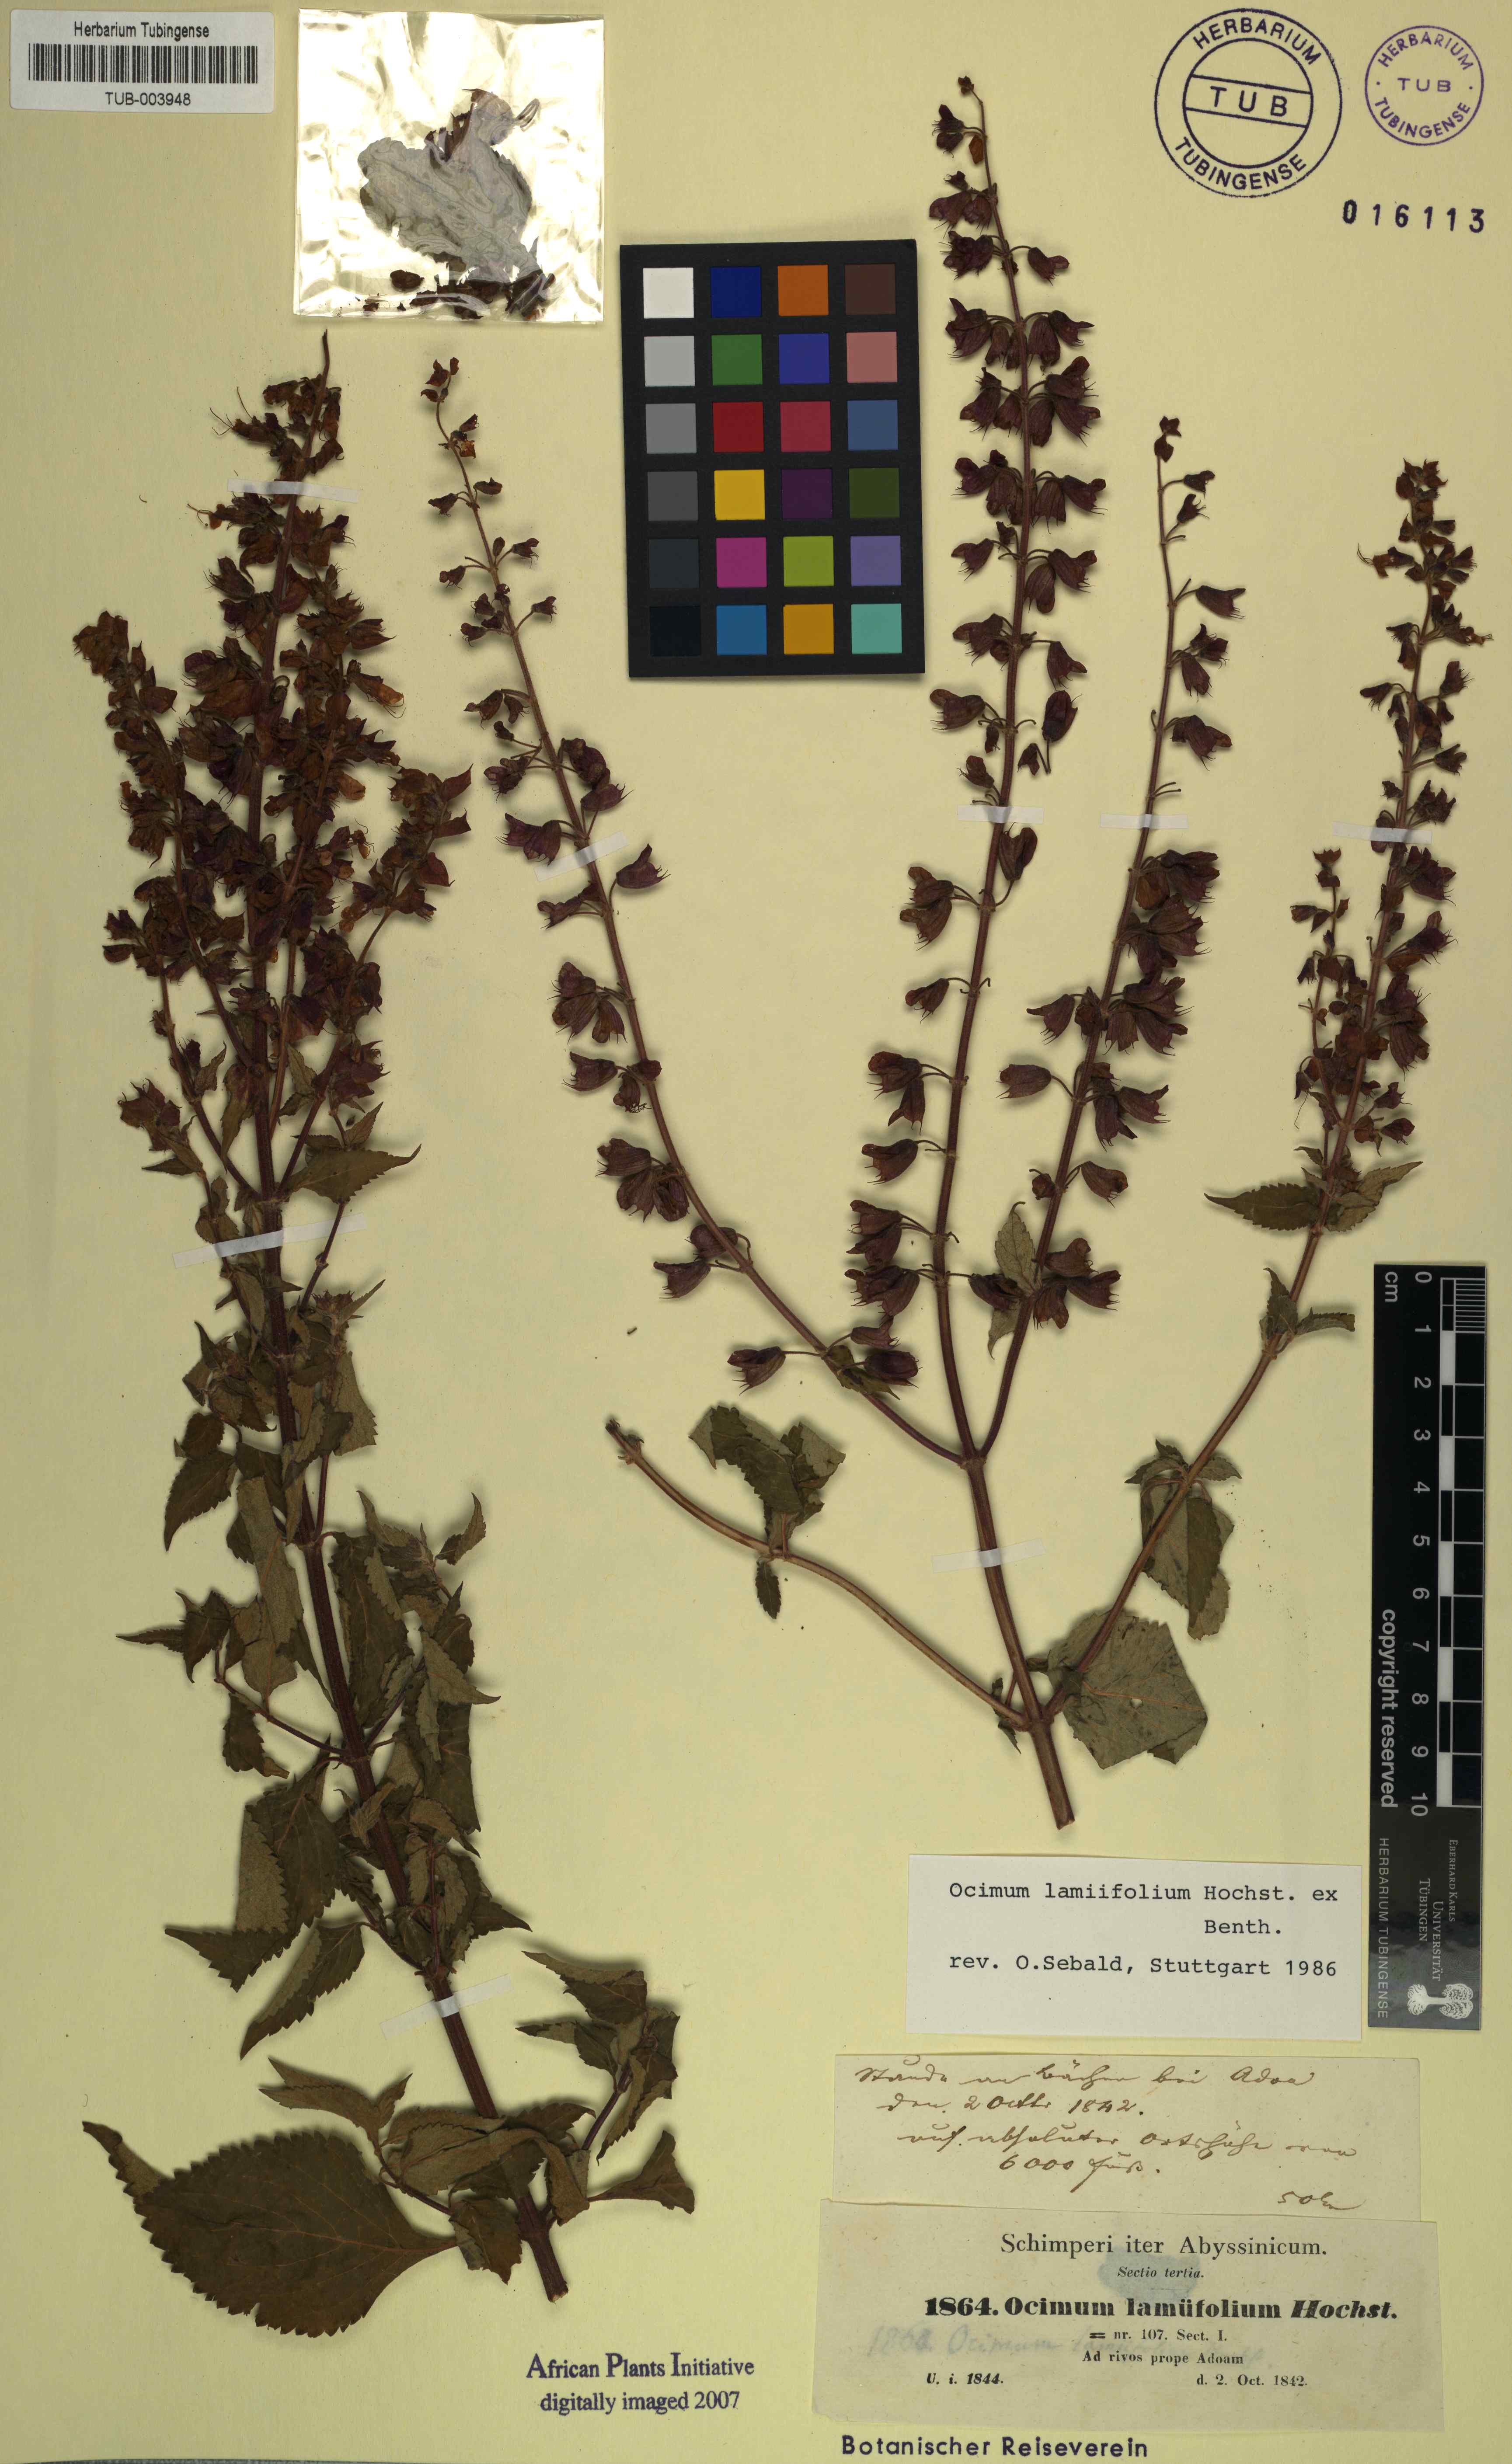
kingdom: Plantae
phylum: Tracheophyta
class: Magnoliopsida
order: Lamiales
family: Lamiaceae
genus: Ocimum
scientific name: Ocimum lamiifolium
